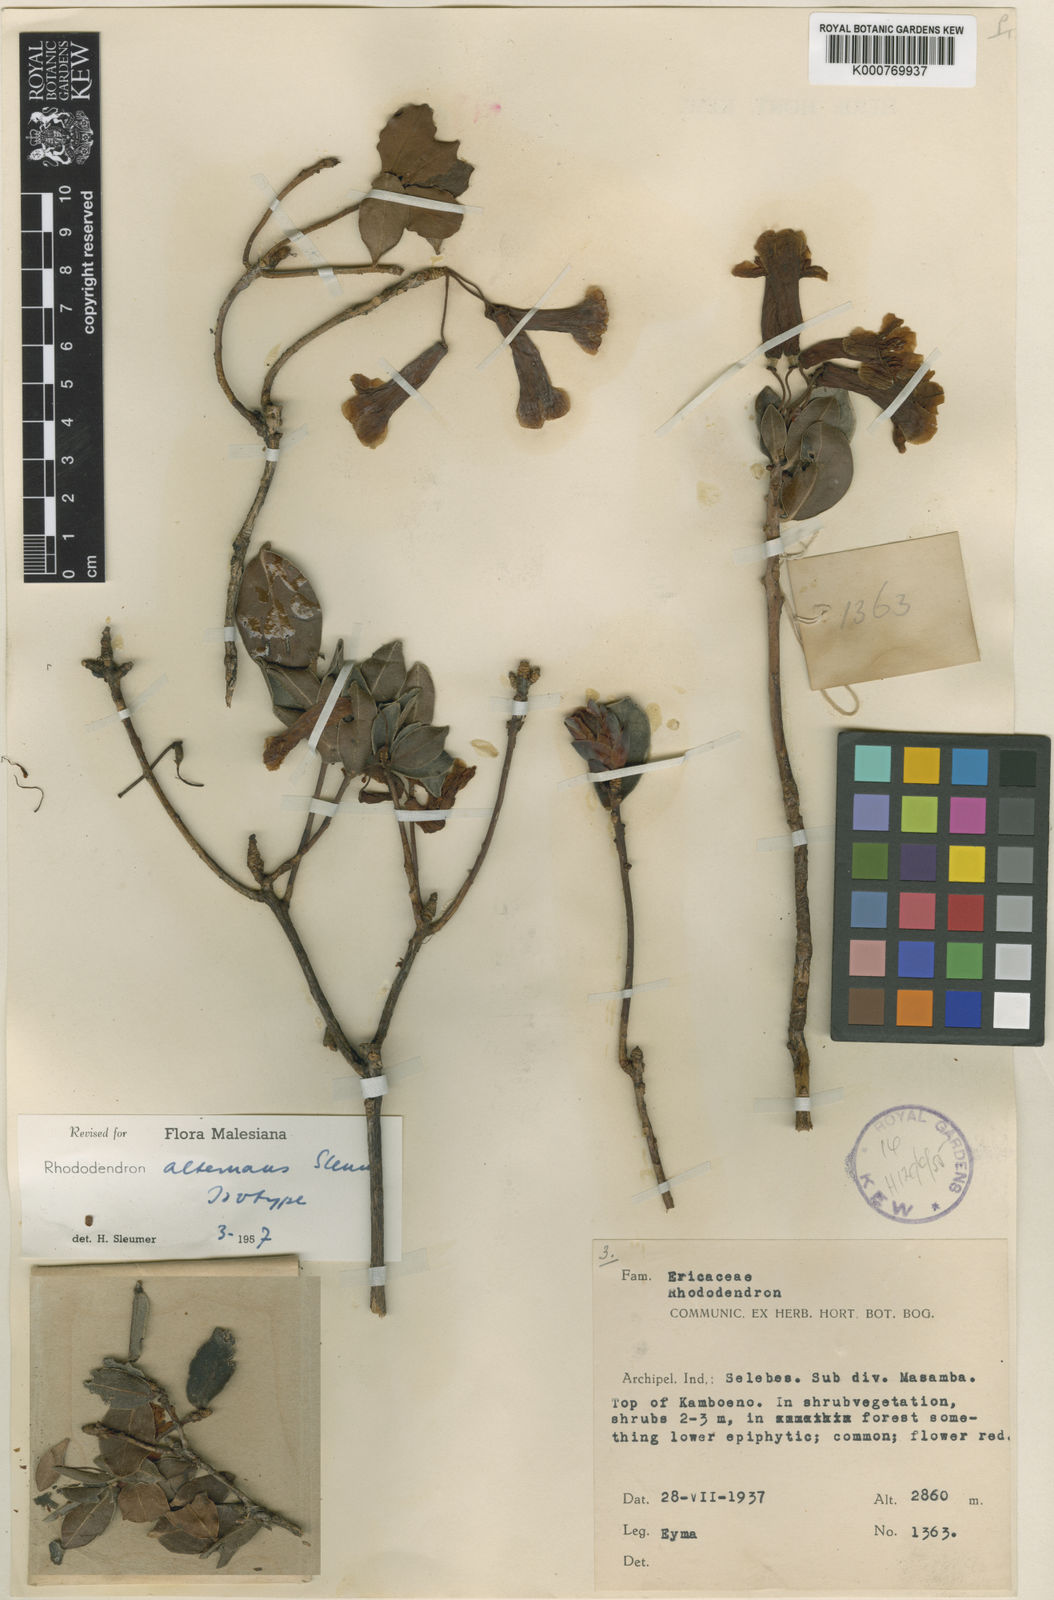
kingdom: Plantae
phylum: Tracheophyta
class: Magnoliopsida
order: Ericales
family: Ericaceae
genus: Rhododendron
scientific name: Rhododendron alternans
